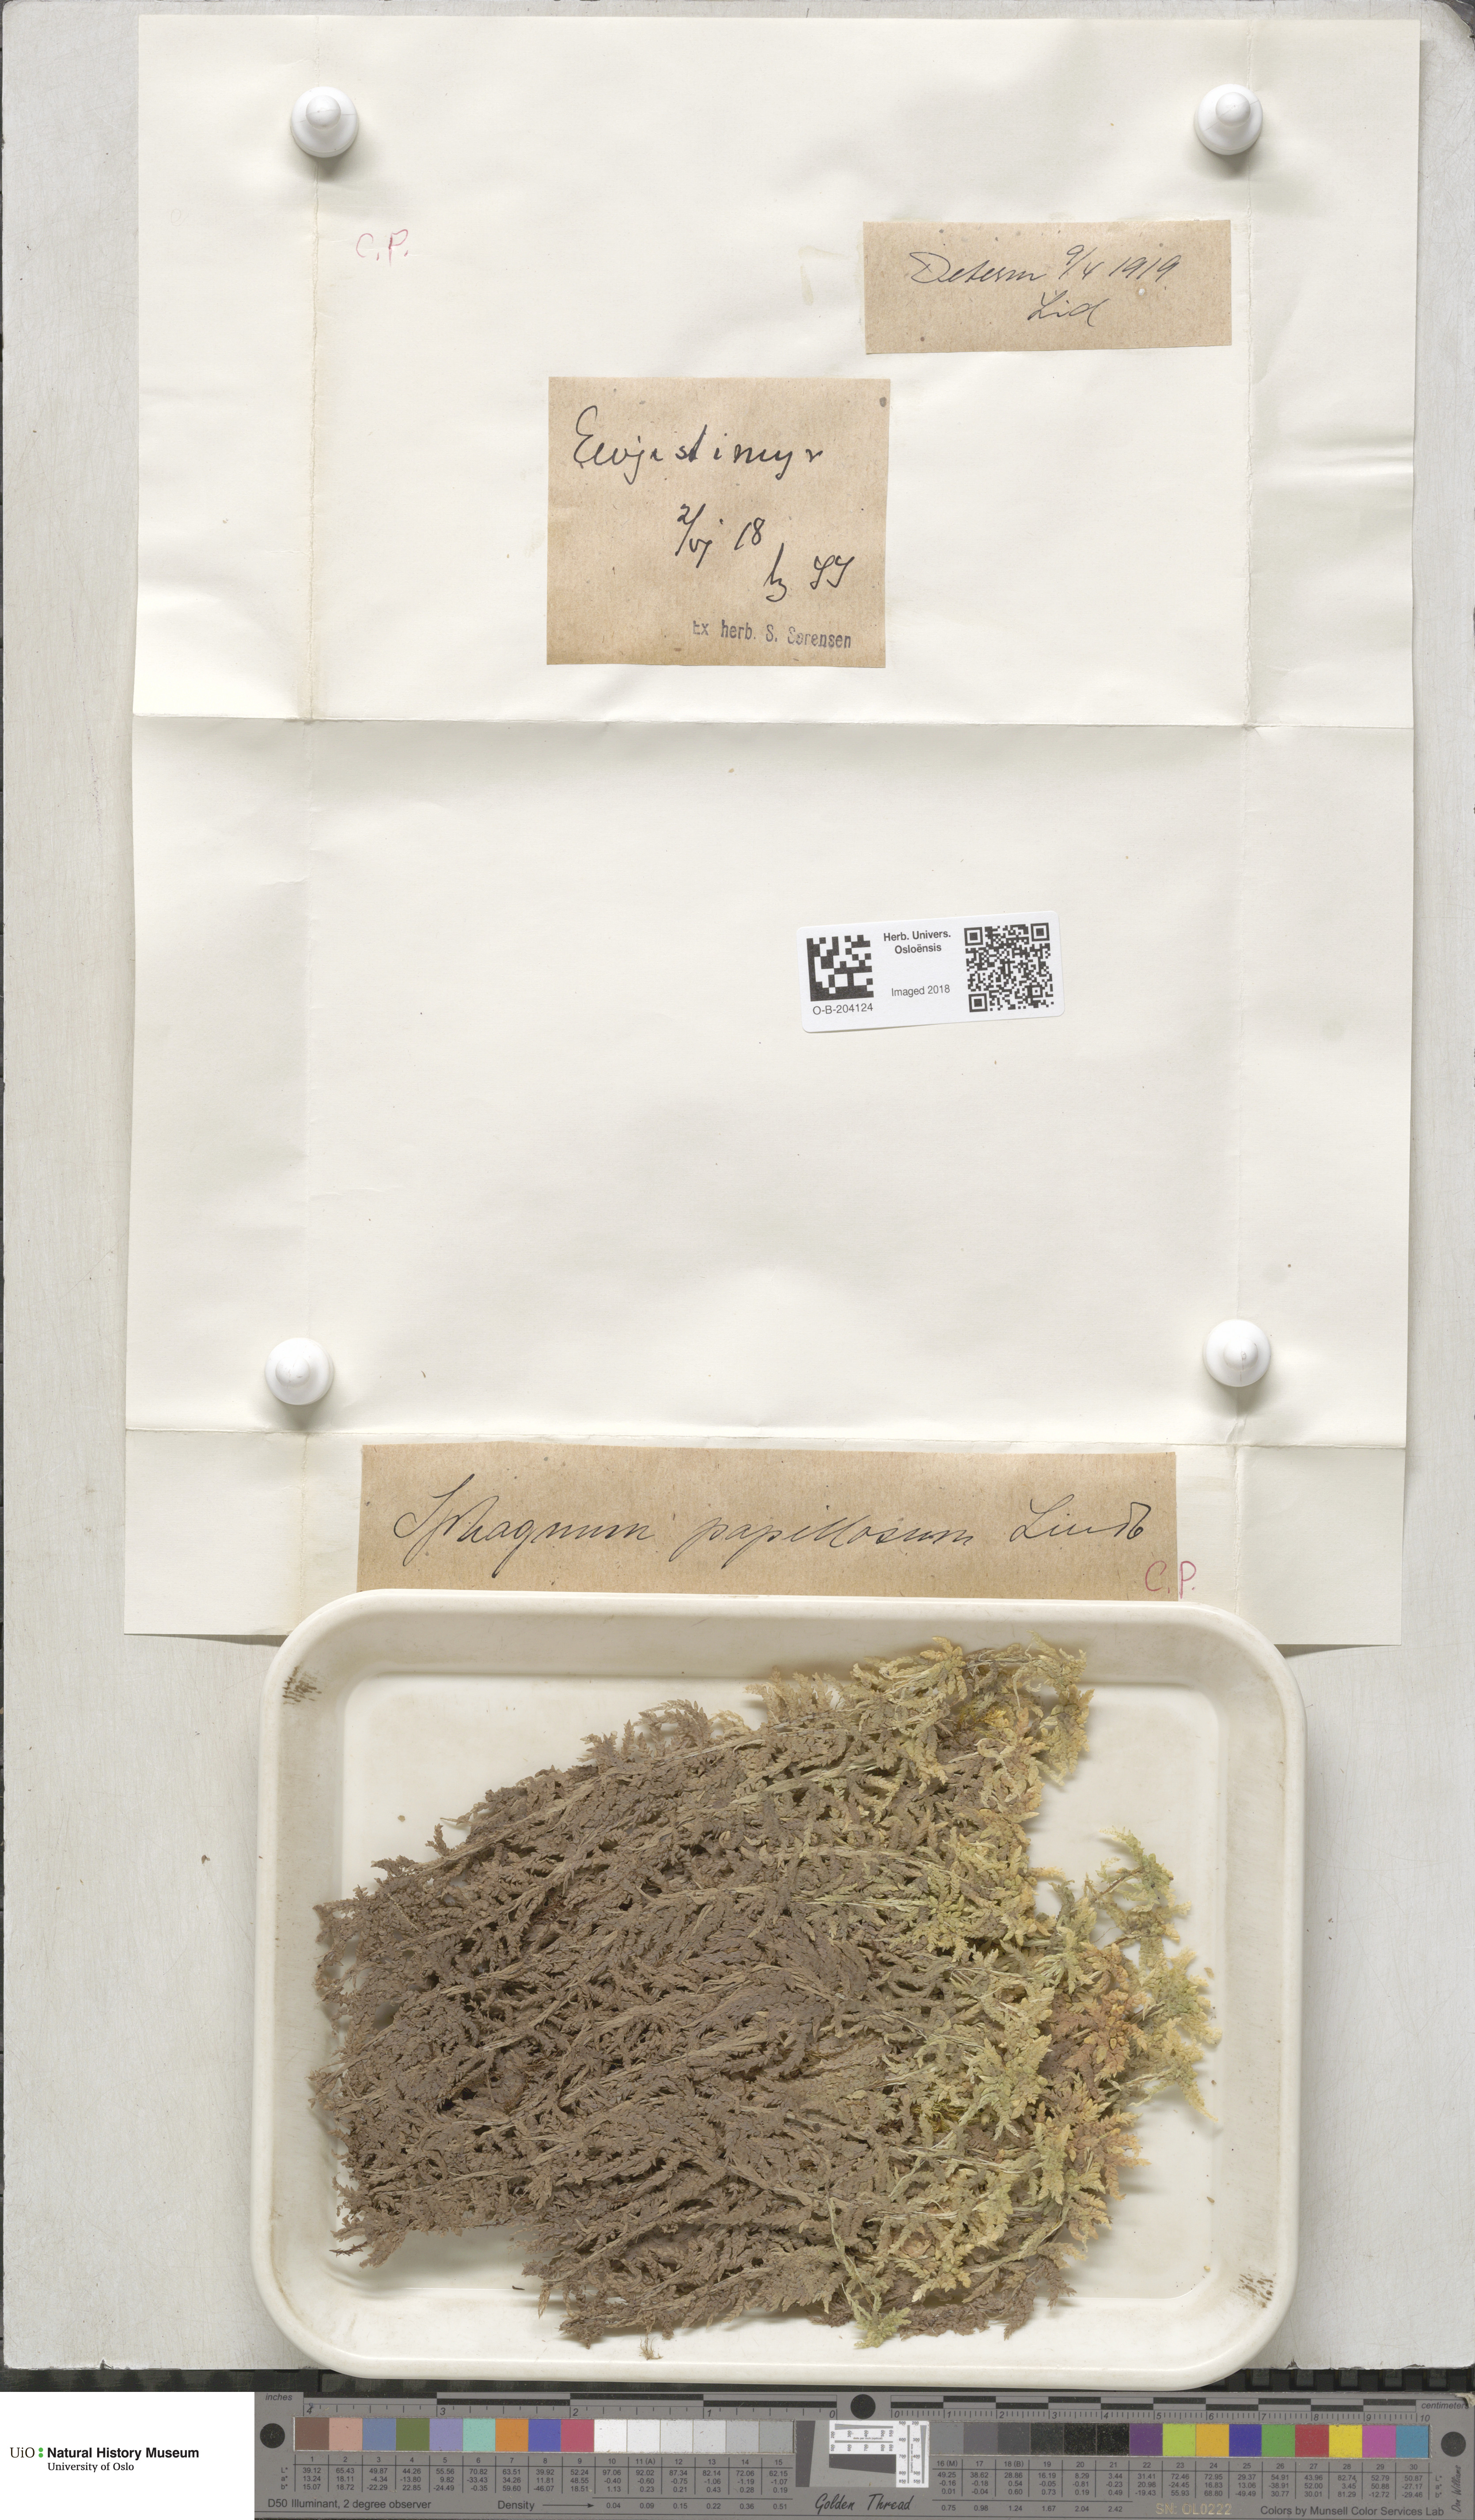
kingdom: Plantae
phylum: Bryophyta
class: Sphagnopsida
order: Sphagnales
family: Sphagnaceae
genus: Sphagnum
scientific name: Sphagnum papillosum
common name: Papillose peat moss
